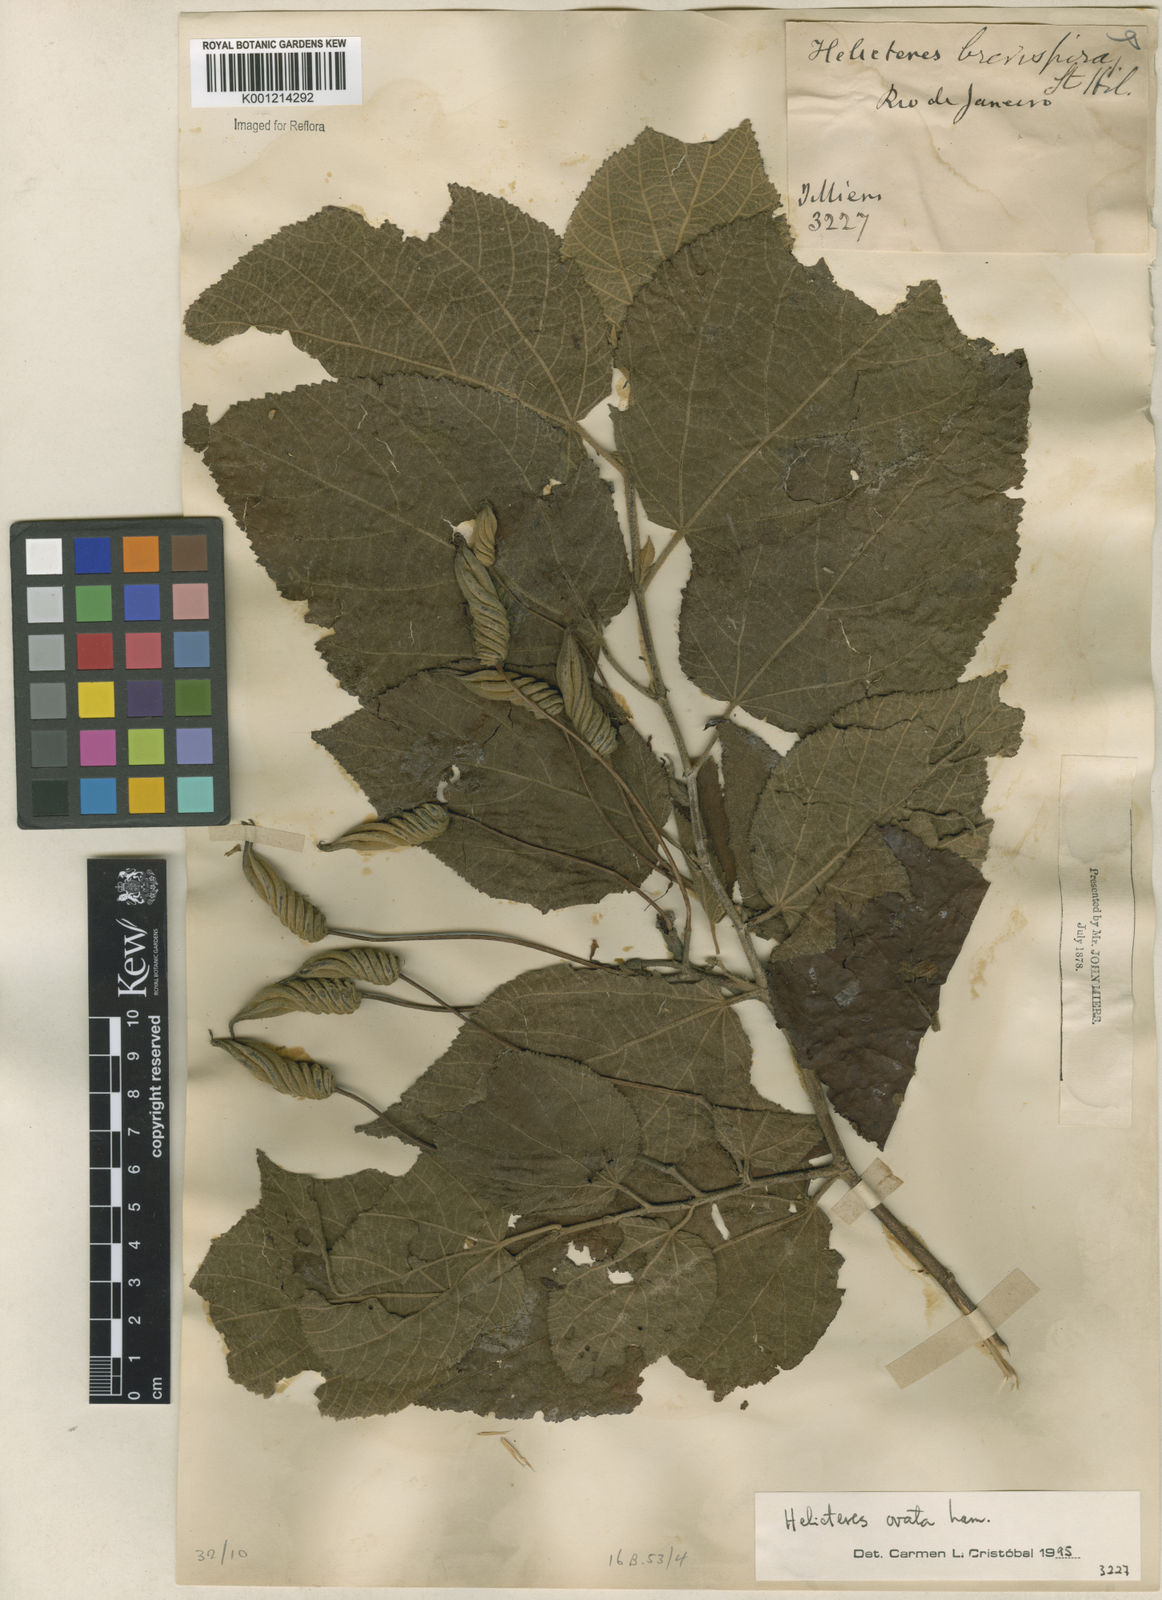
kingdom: Plantae
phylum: Tracheophyta
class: Magnoliopsida
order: Malvales
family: Malvaceae
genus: Helicteres
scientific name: Helicteres ovata
